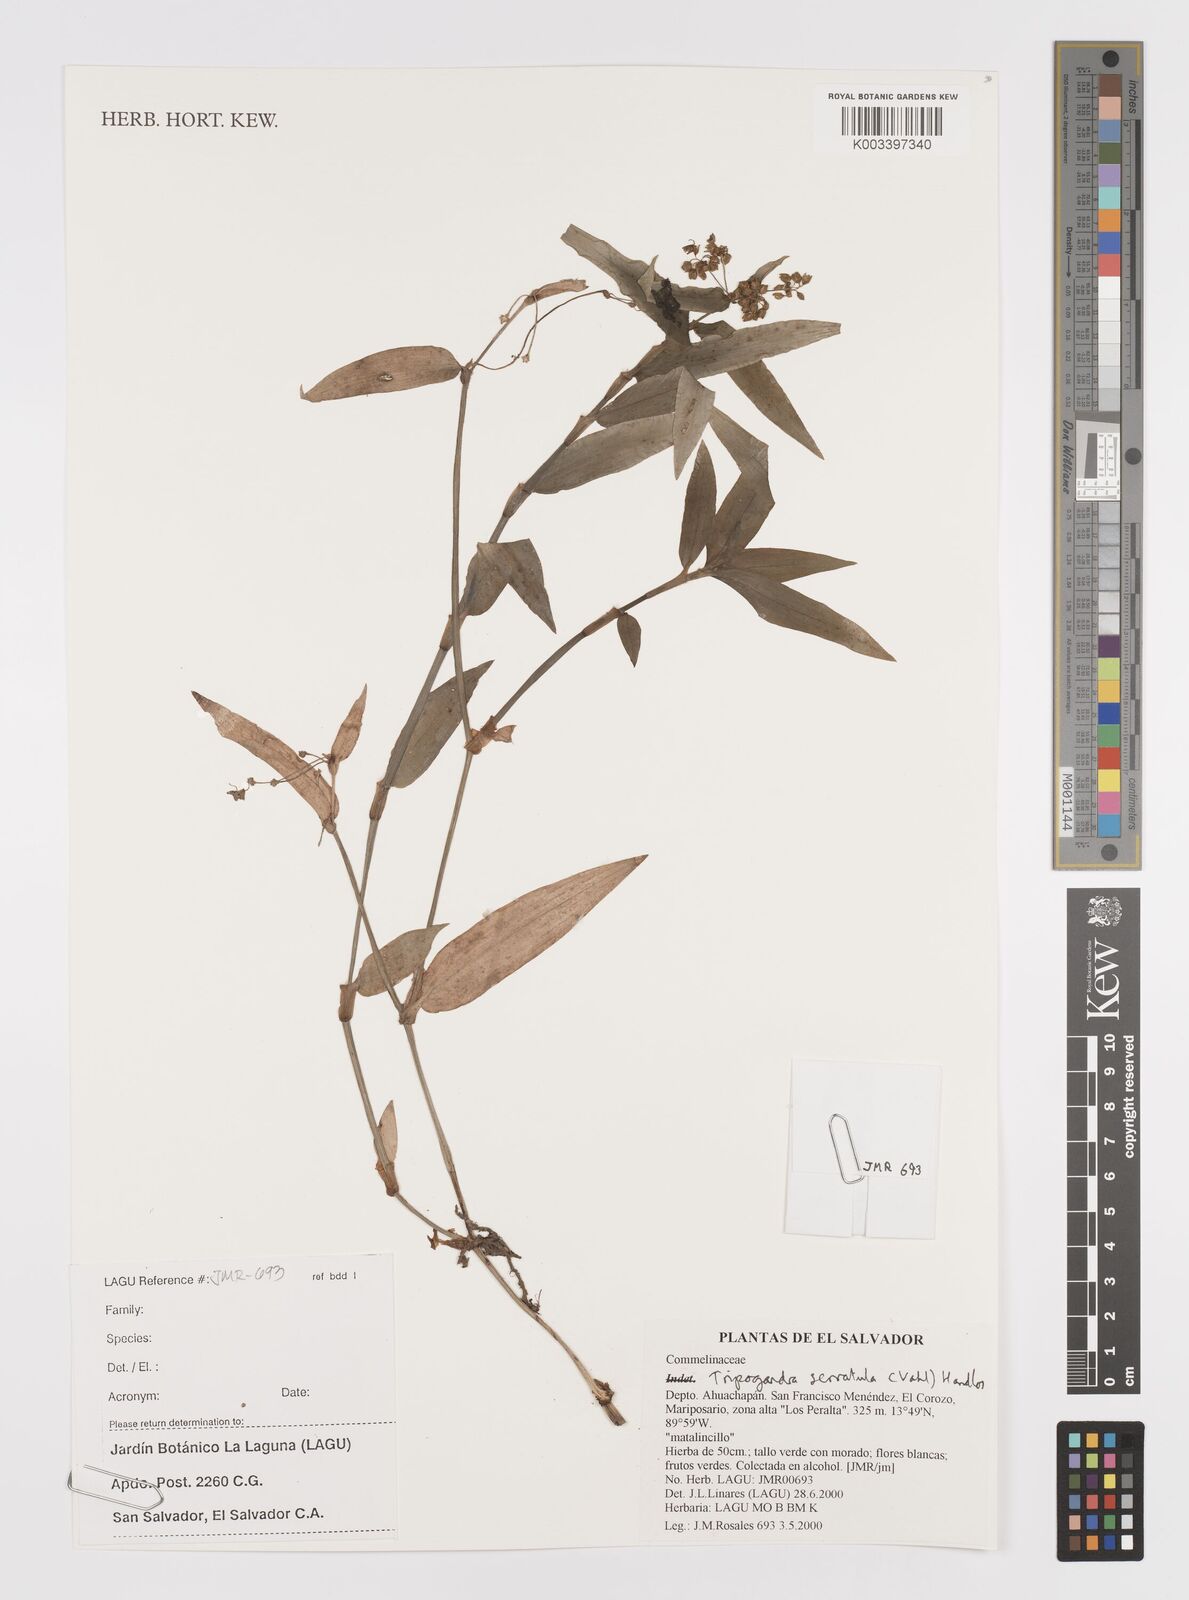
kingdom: Plantae
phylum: Tracheophyta
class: Liliopsida
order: Commelinales
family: Commelinaceae
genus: Callisia
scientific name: Callisia serrulata
